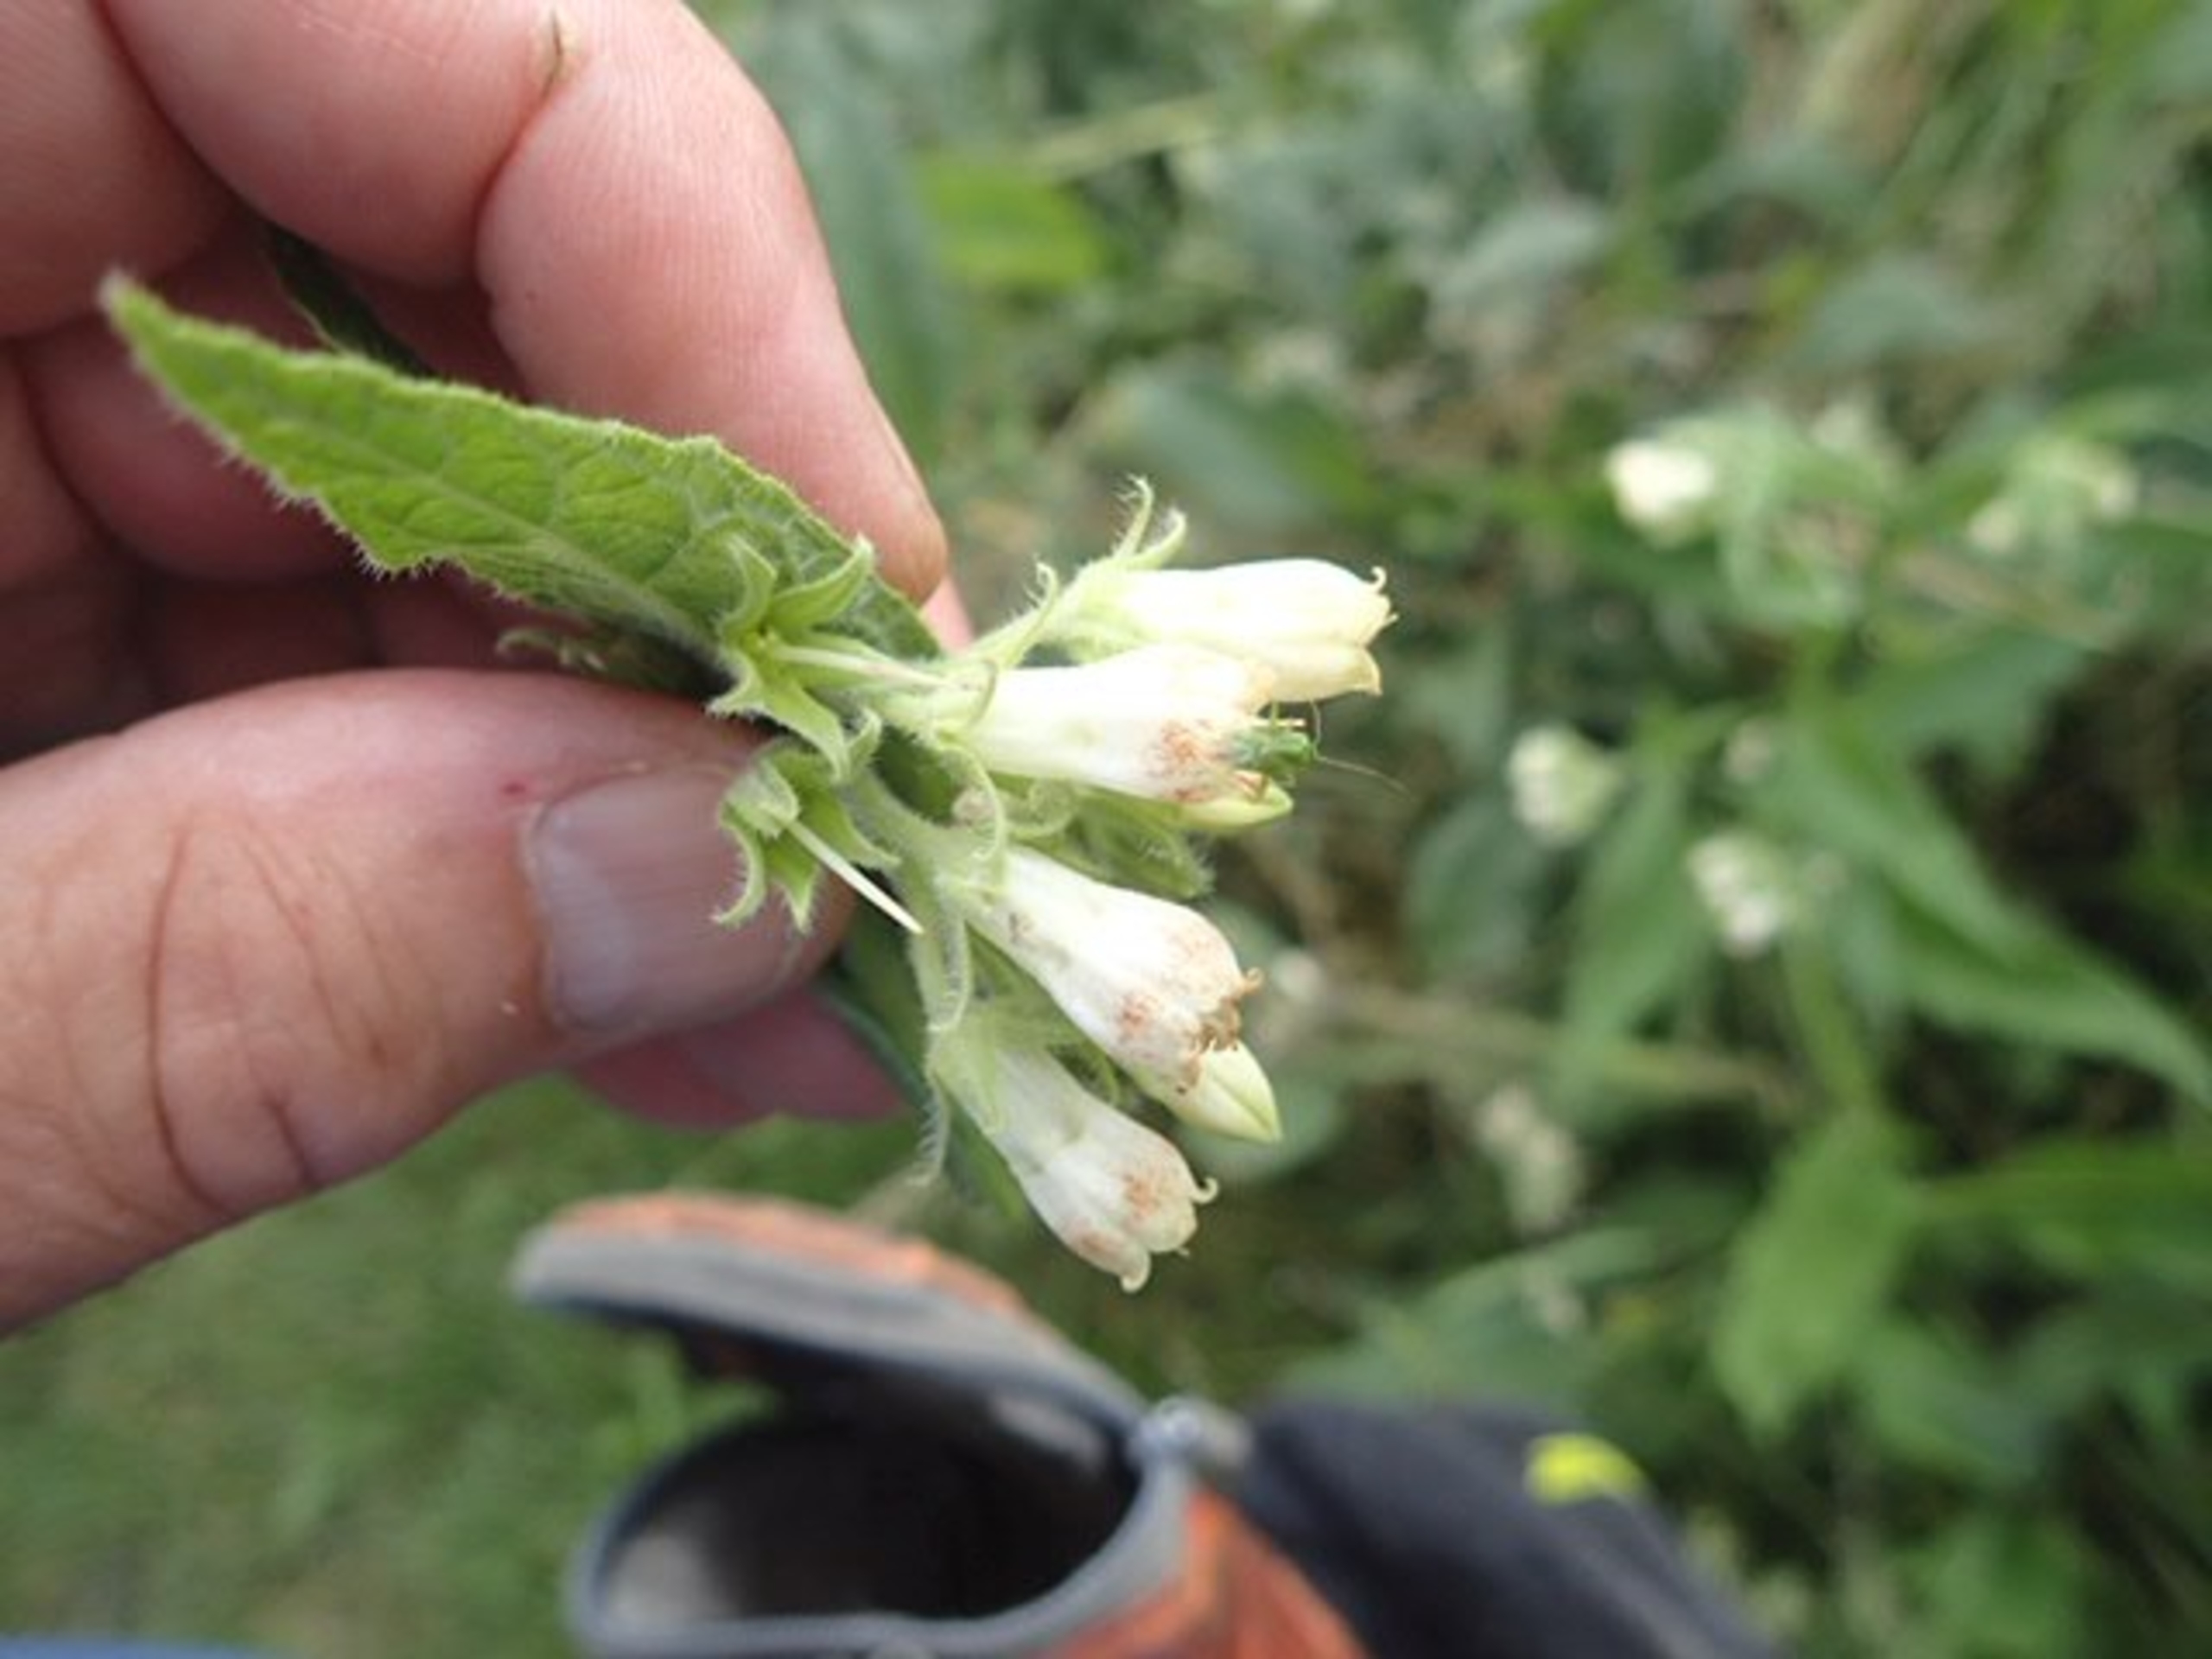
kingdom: Plantae
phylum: Tracheophyta
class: Magnoliopsida
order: Boraginales
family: Boraginaceae
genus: Symphytum
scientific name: Symphytum officinale
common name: Læge-kulsukker
